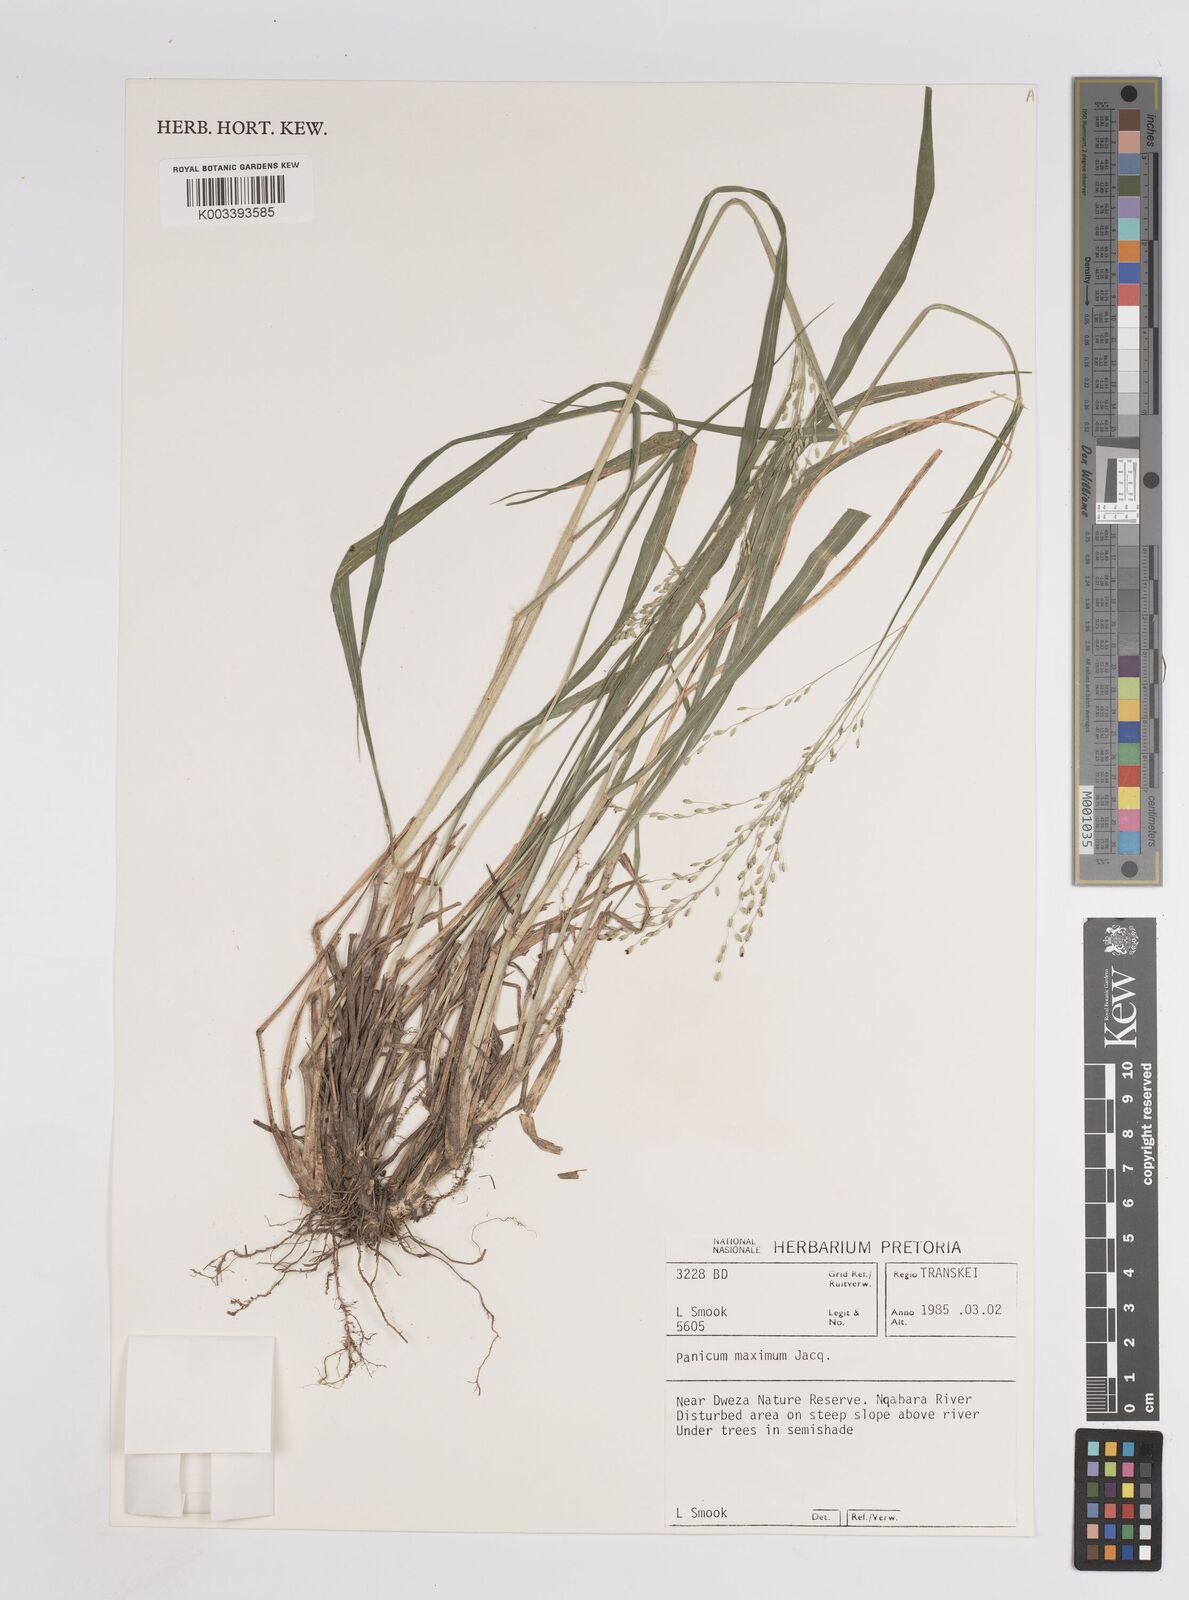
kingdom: Plantae
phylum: Tracheophyta
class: Liliopsida
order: Poales
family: Poaceae
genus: Megathyrsus
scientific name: Megathyrsus maximus
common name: Guineagrass
